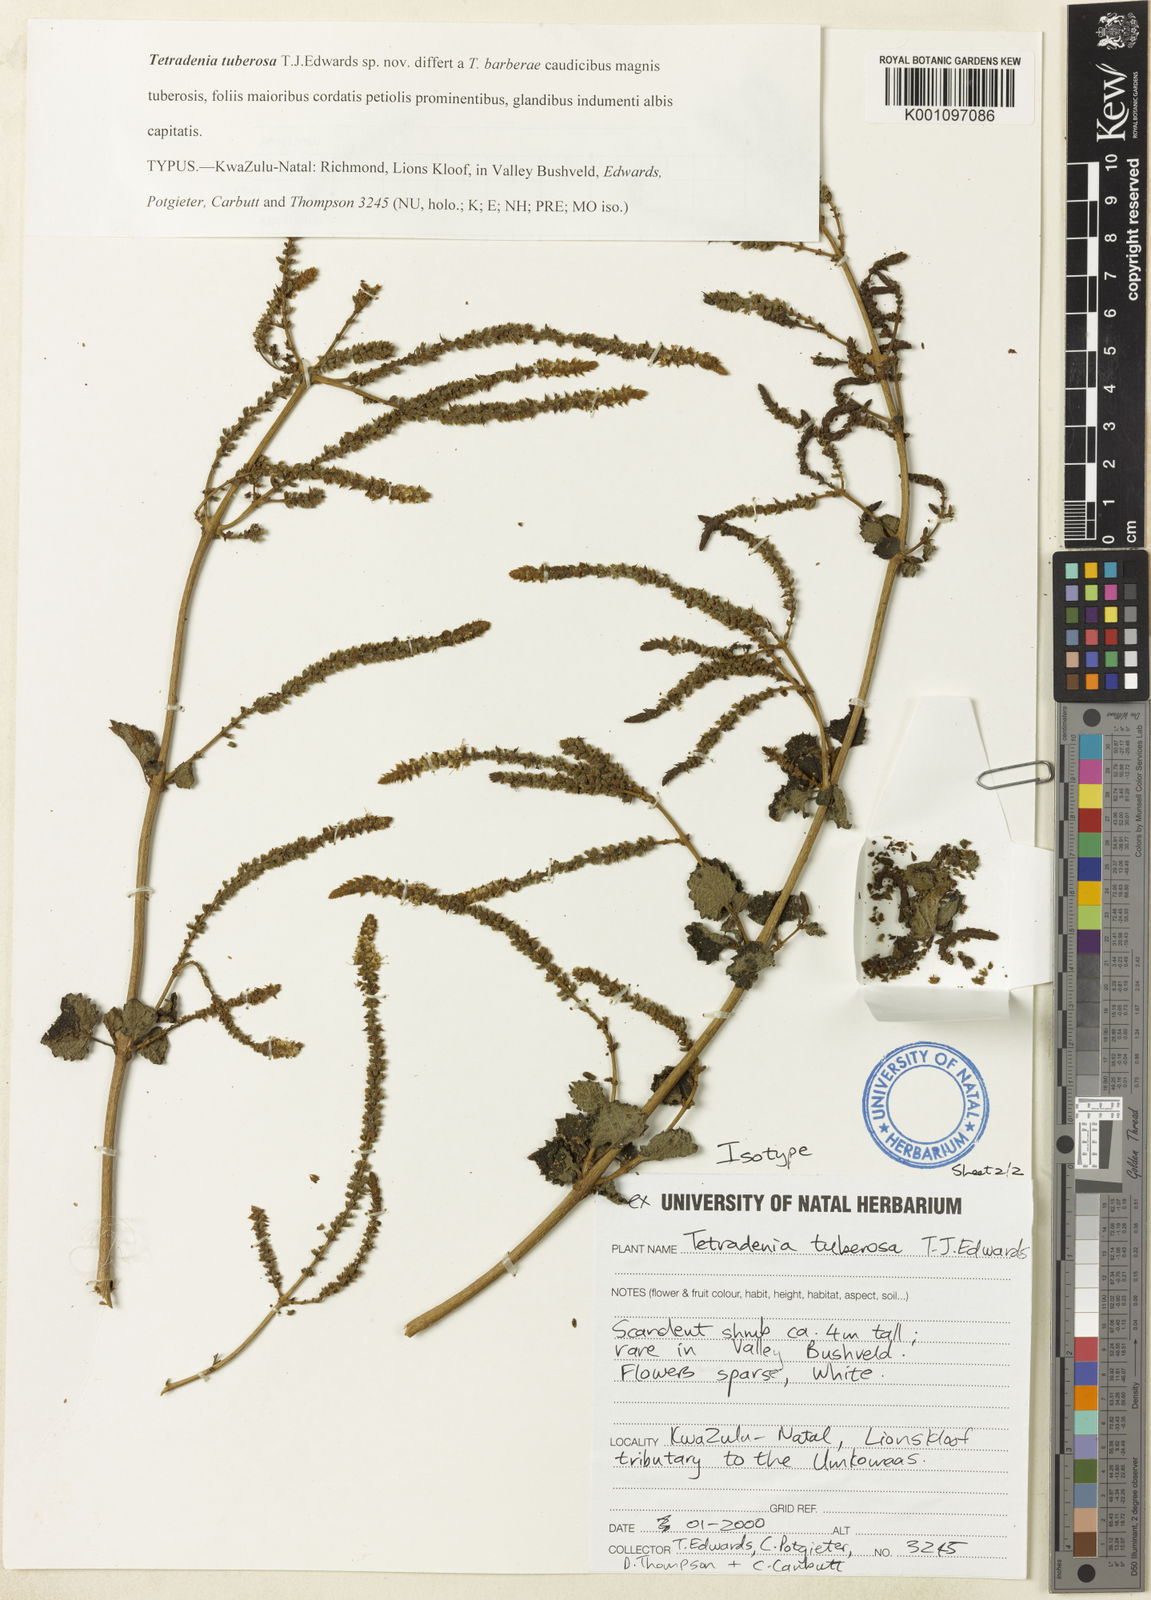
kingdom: Plantae
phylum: Tracheophyta
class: Magnoliopsida
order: Lamiales
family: Lamiaceae
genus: Tetradenia
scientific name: Tetradenia tuberosa
